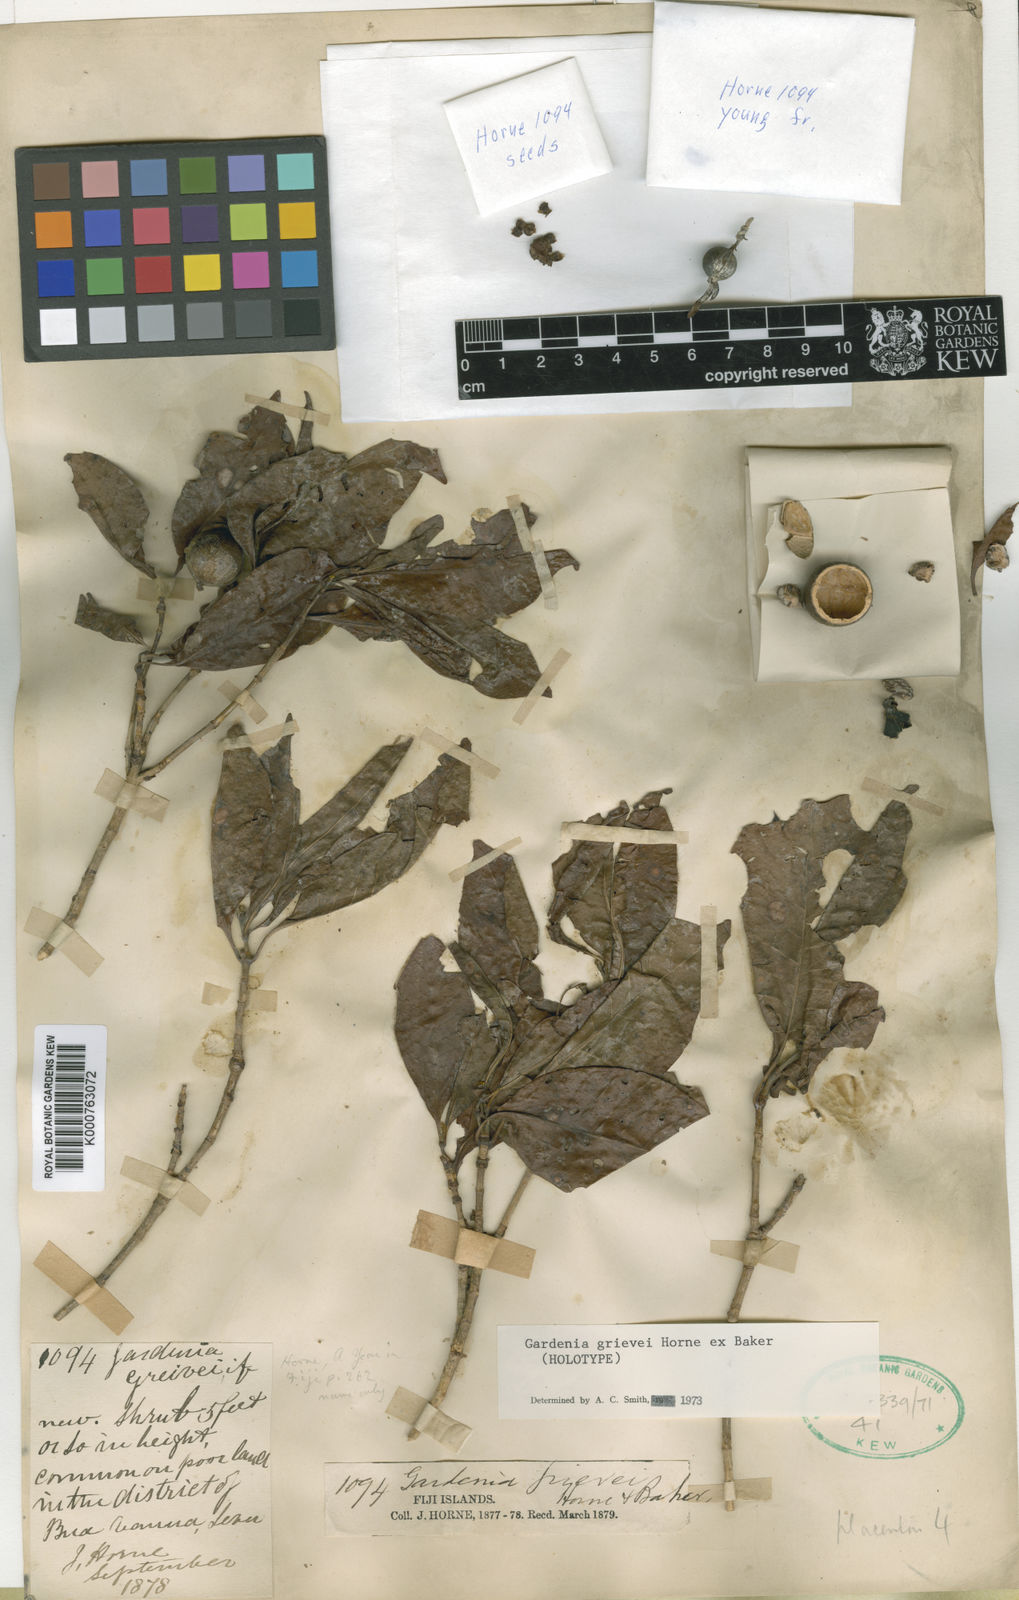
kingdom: Plantae
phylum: Tracheophyta
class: Magnoliopsida
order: Gentianales
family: Rubiaceae
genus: Gardenia
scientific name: Gardenia grievei
